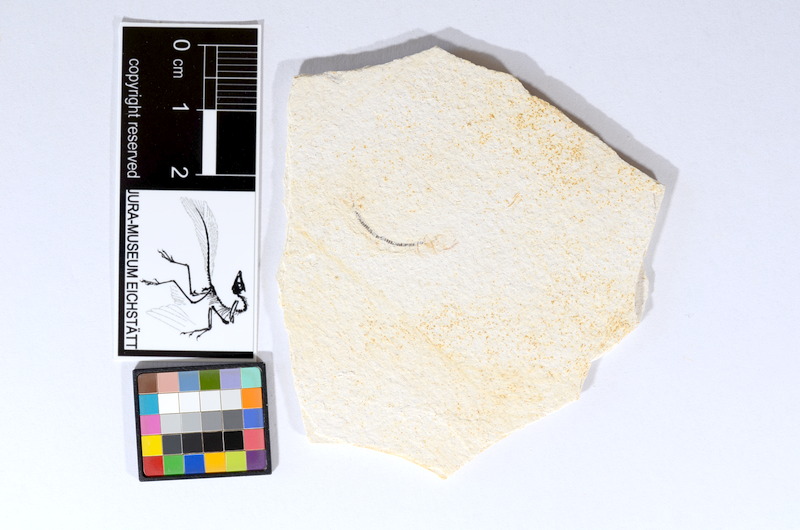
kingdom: Animalia
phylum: Chordata
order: Salmoniformes
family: Orthogonikleithridae
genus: Orthogonikleithrus
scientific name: Orthogonikleithrus hoelli
